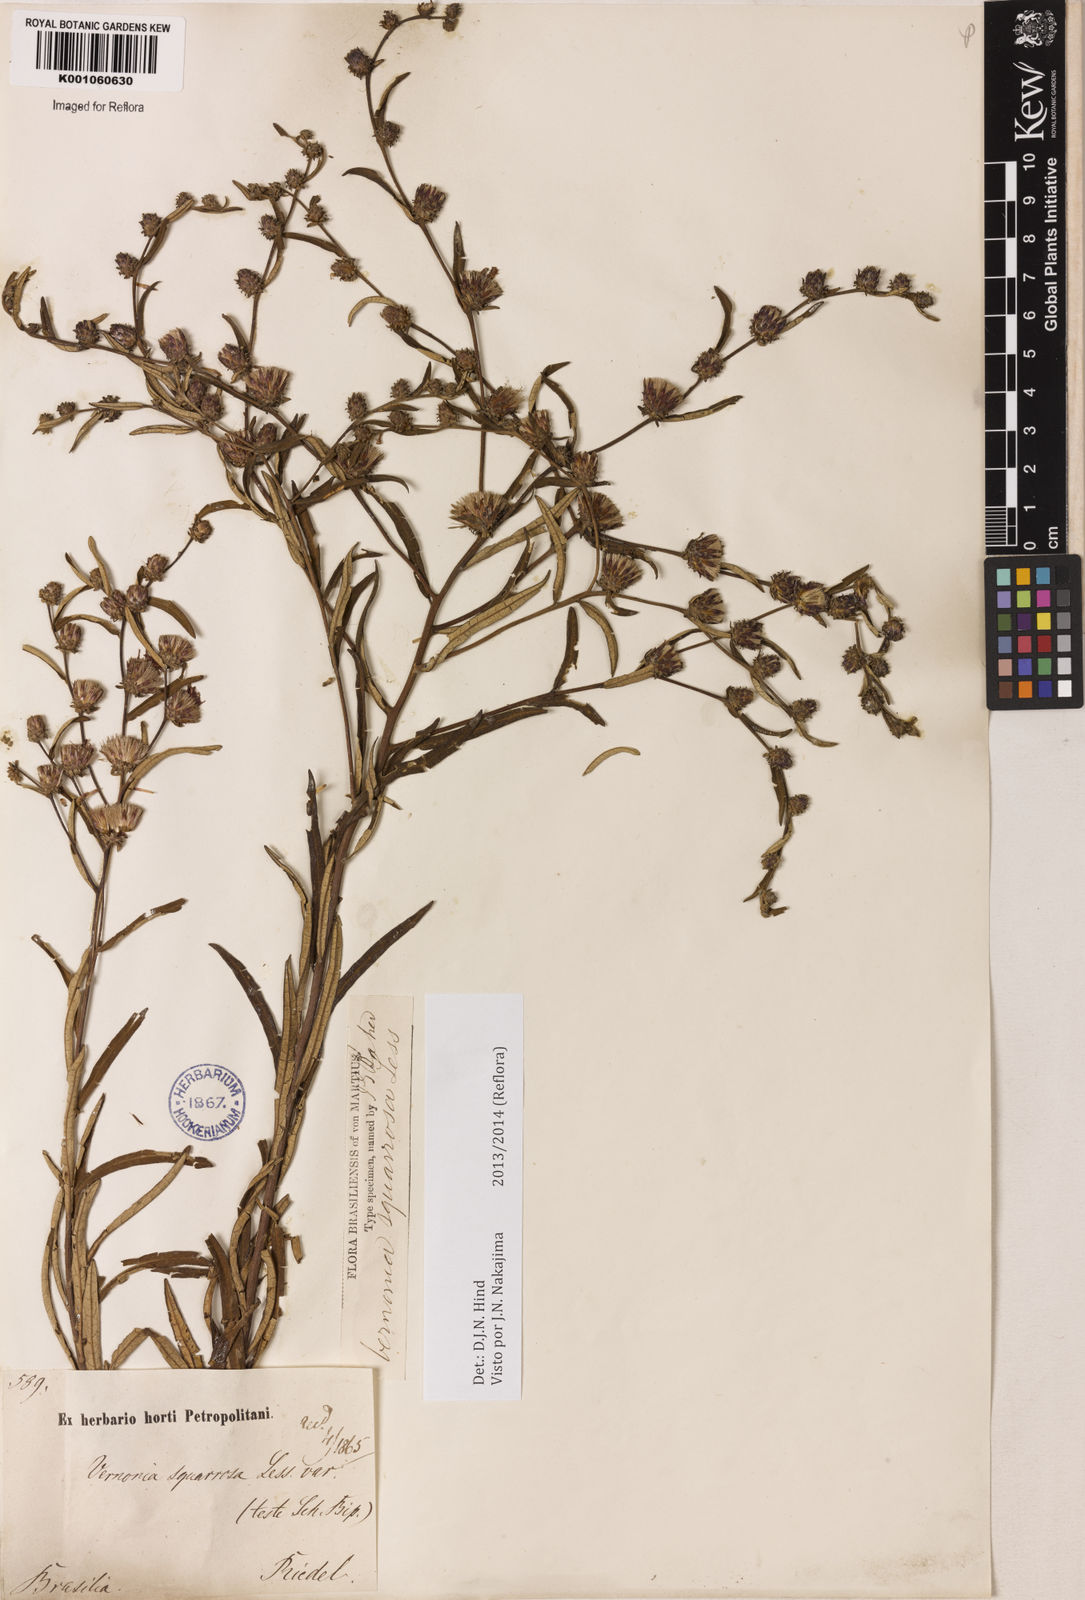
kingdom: Plantae
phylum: Tracheophyta
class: Magnoliopsida
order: Asterales
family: Asteraceae
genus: Lessingianthus
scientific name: Lessingianthus plantaginoides
